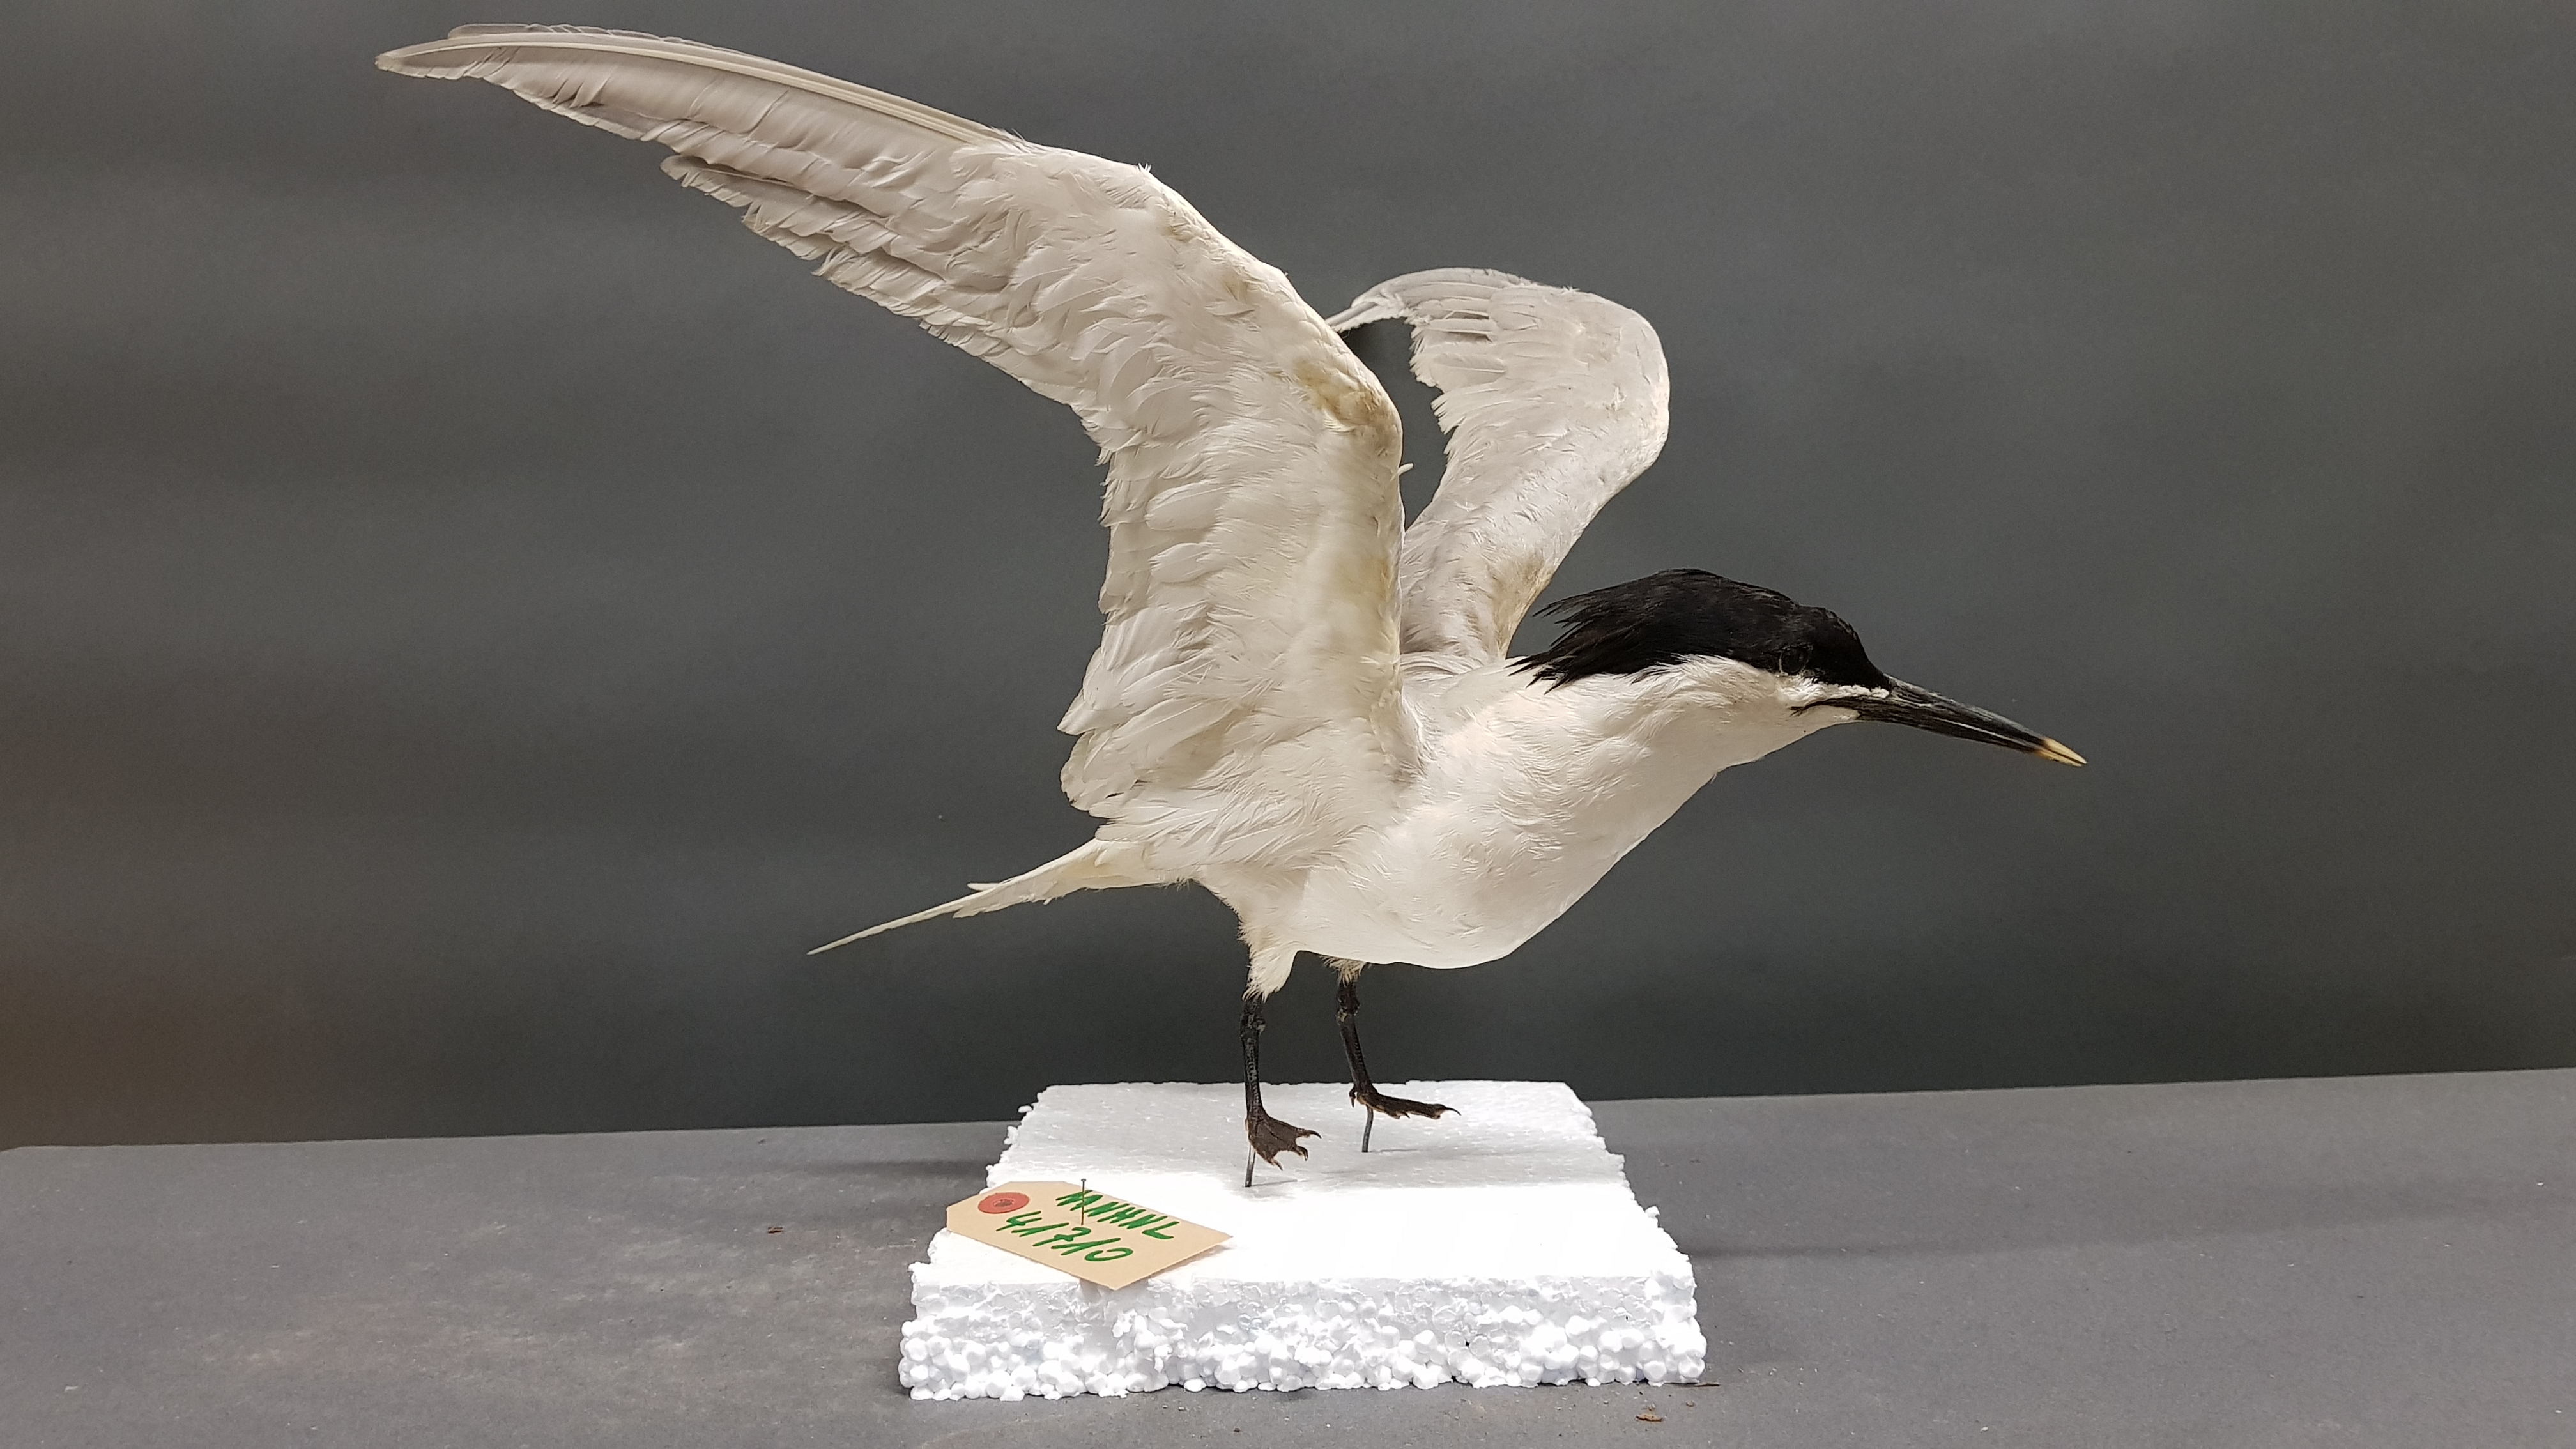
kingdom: Animalia
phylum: Chordata
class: Aves
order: Charadriiformes
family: Laridae
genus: Thalasseus
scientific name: Thalasseus sandvicensis
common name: Sandwich tern
